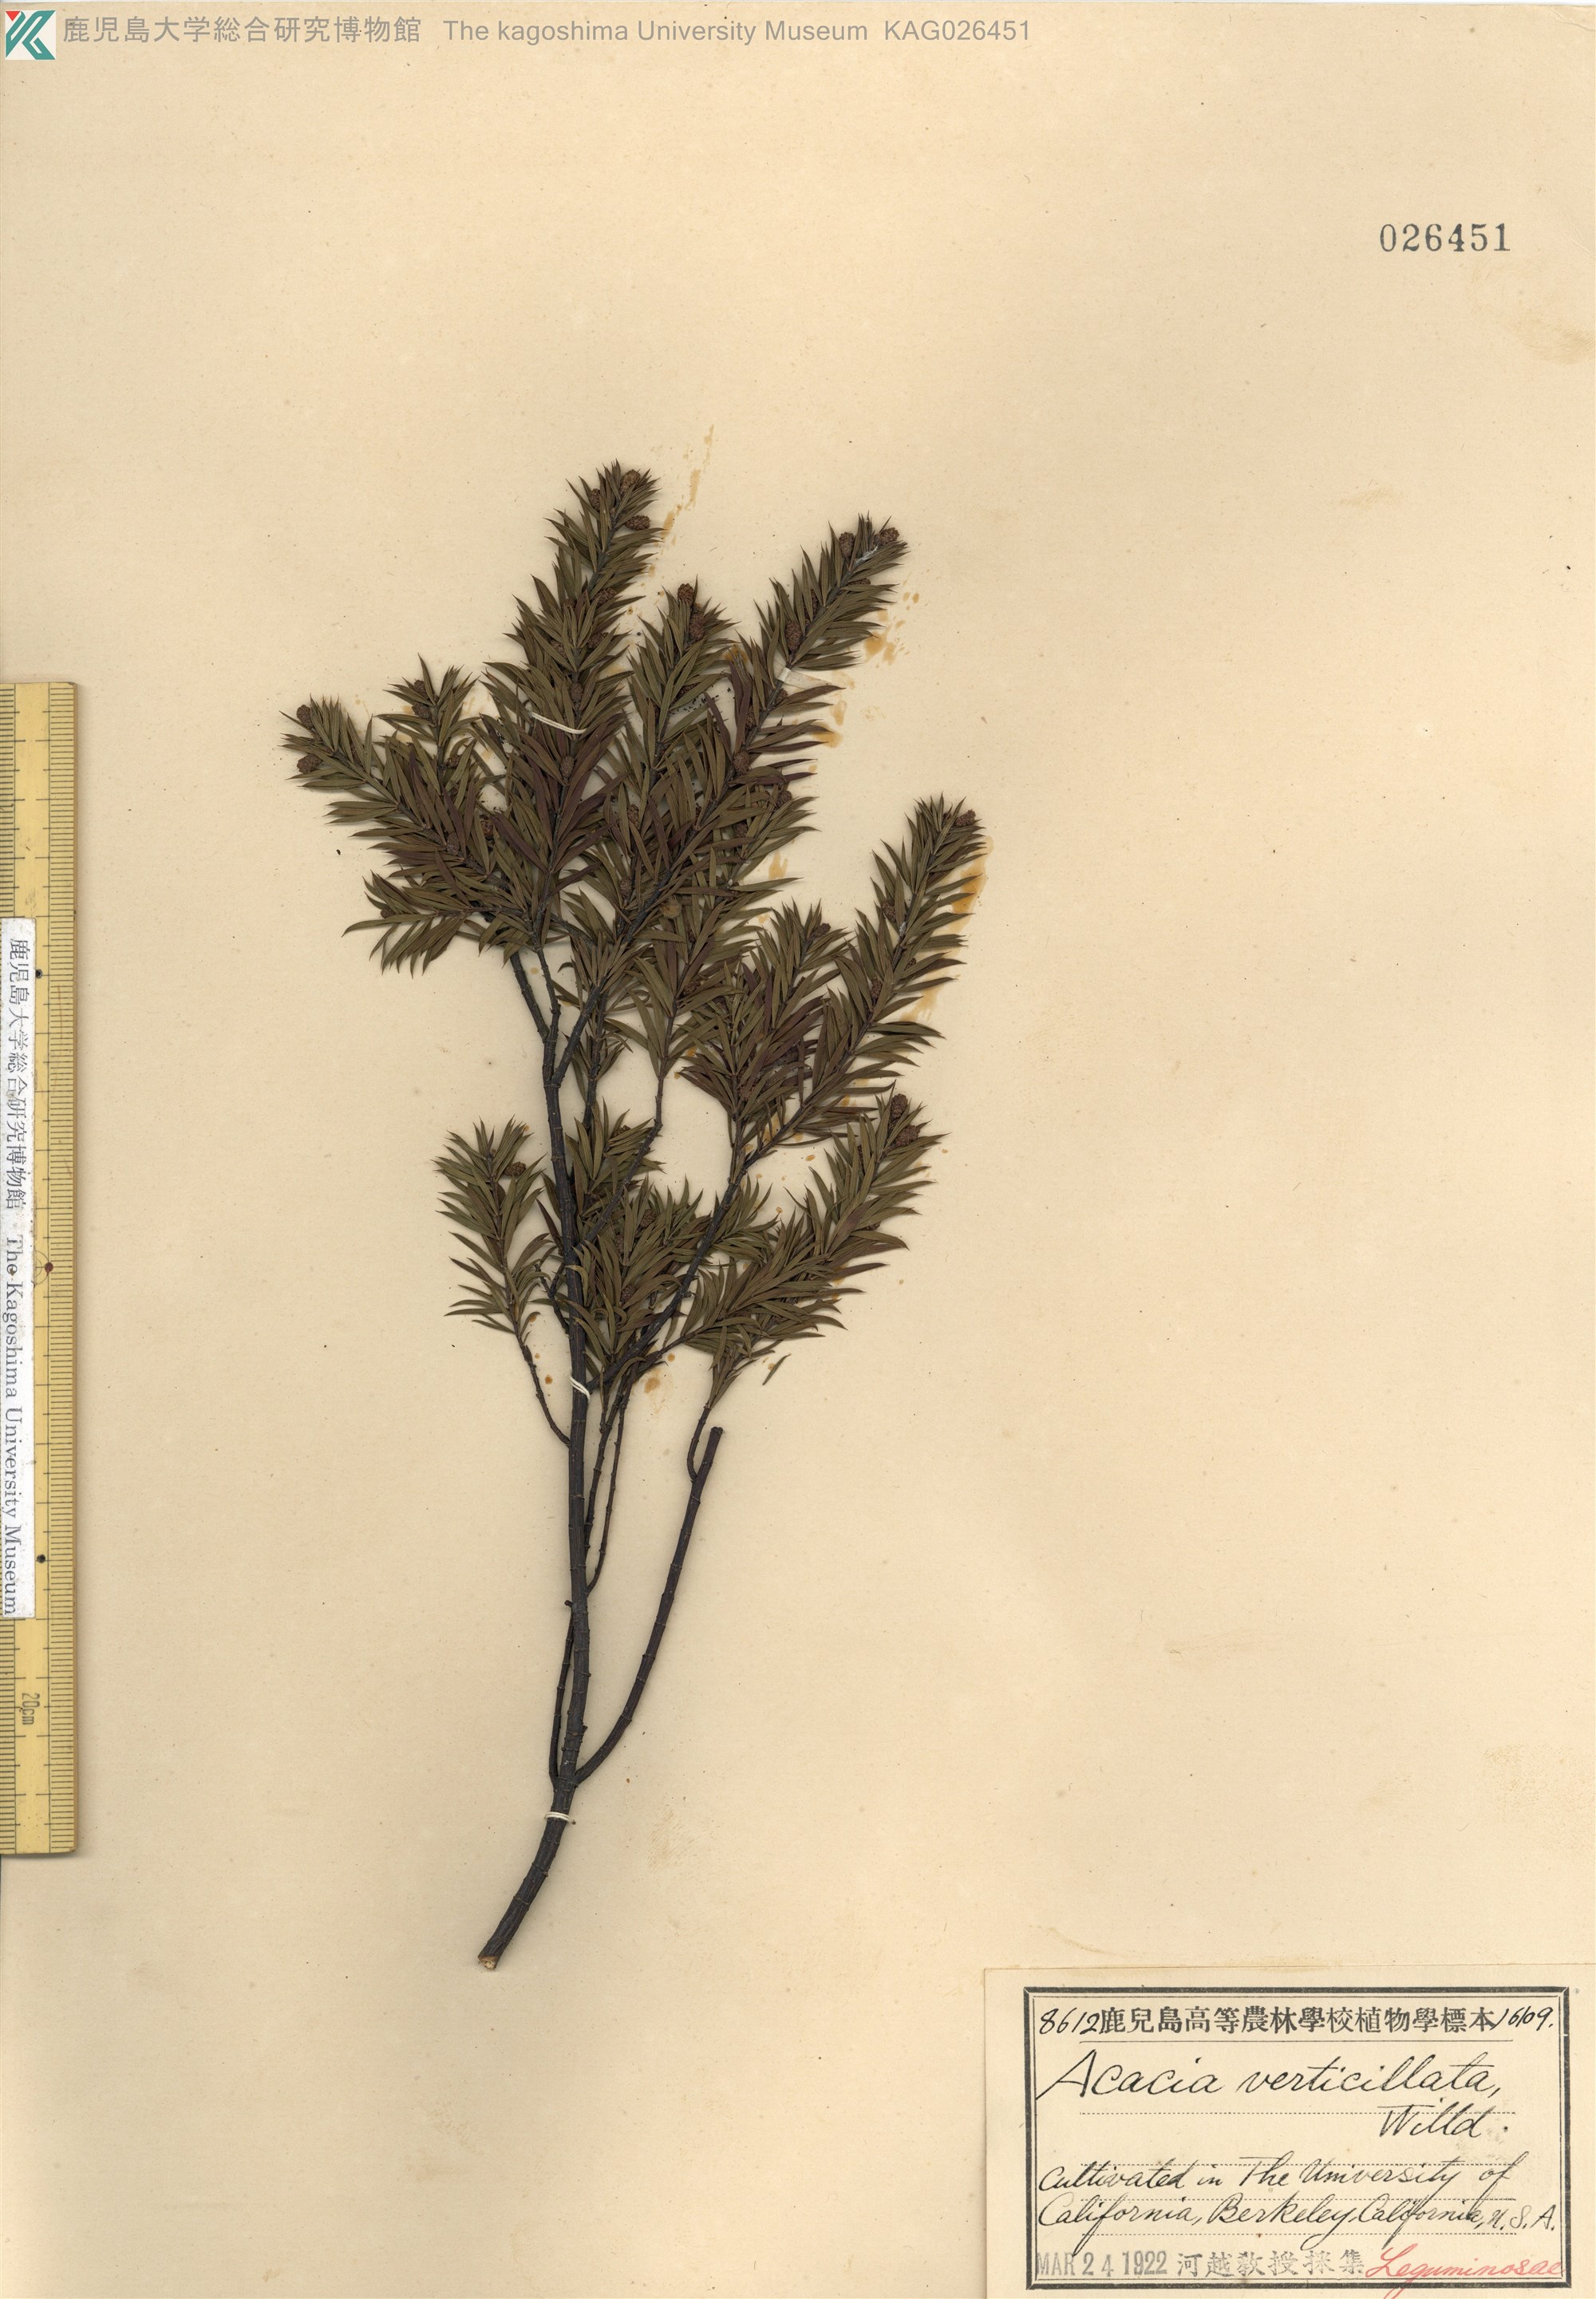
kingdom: Plantae
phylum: Tracheophyta
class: Magnoliopsida
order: Fabales
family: Fabaceae
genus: Acacia
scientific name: Acacia verticillata
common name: Prickly moses
